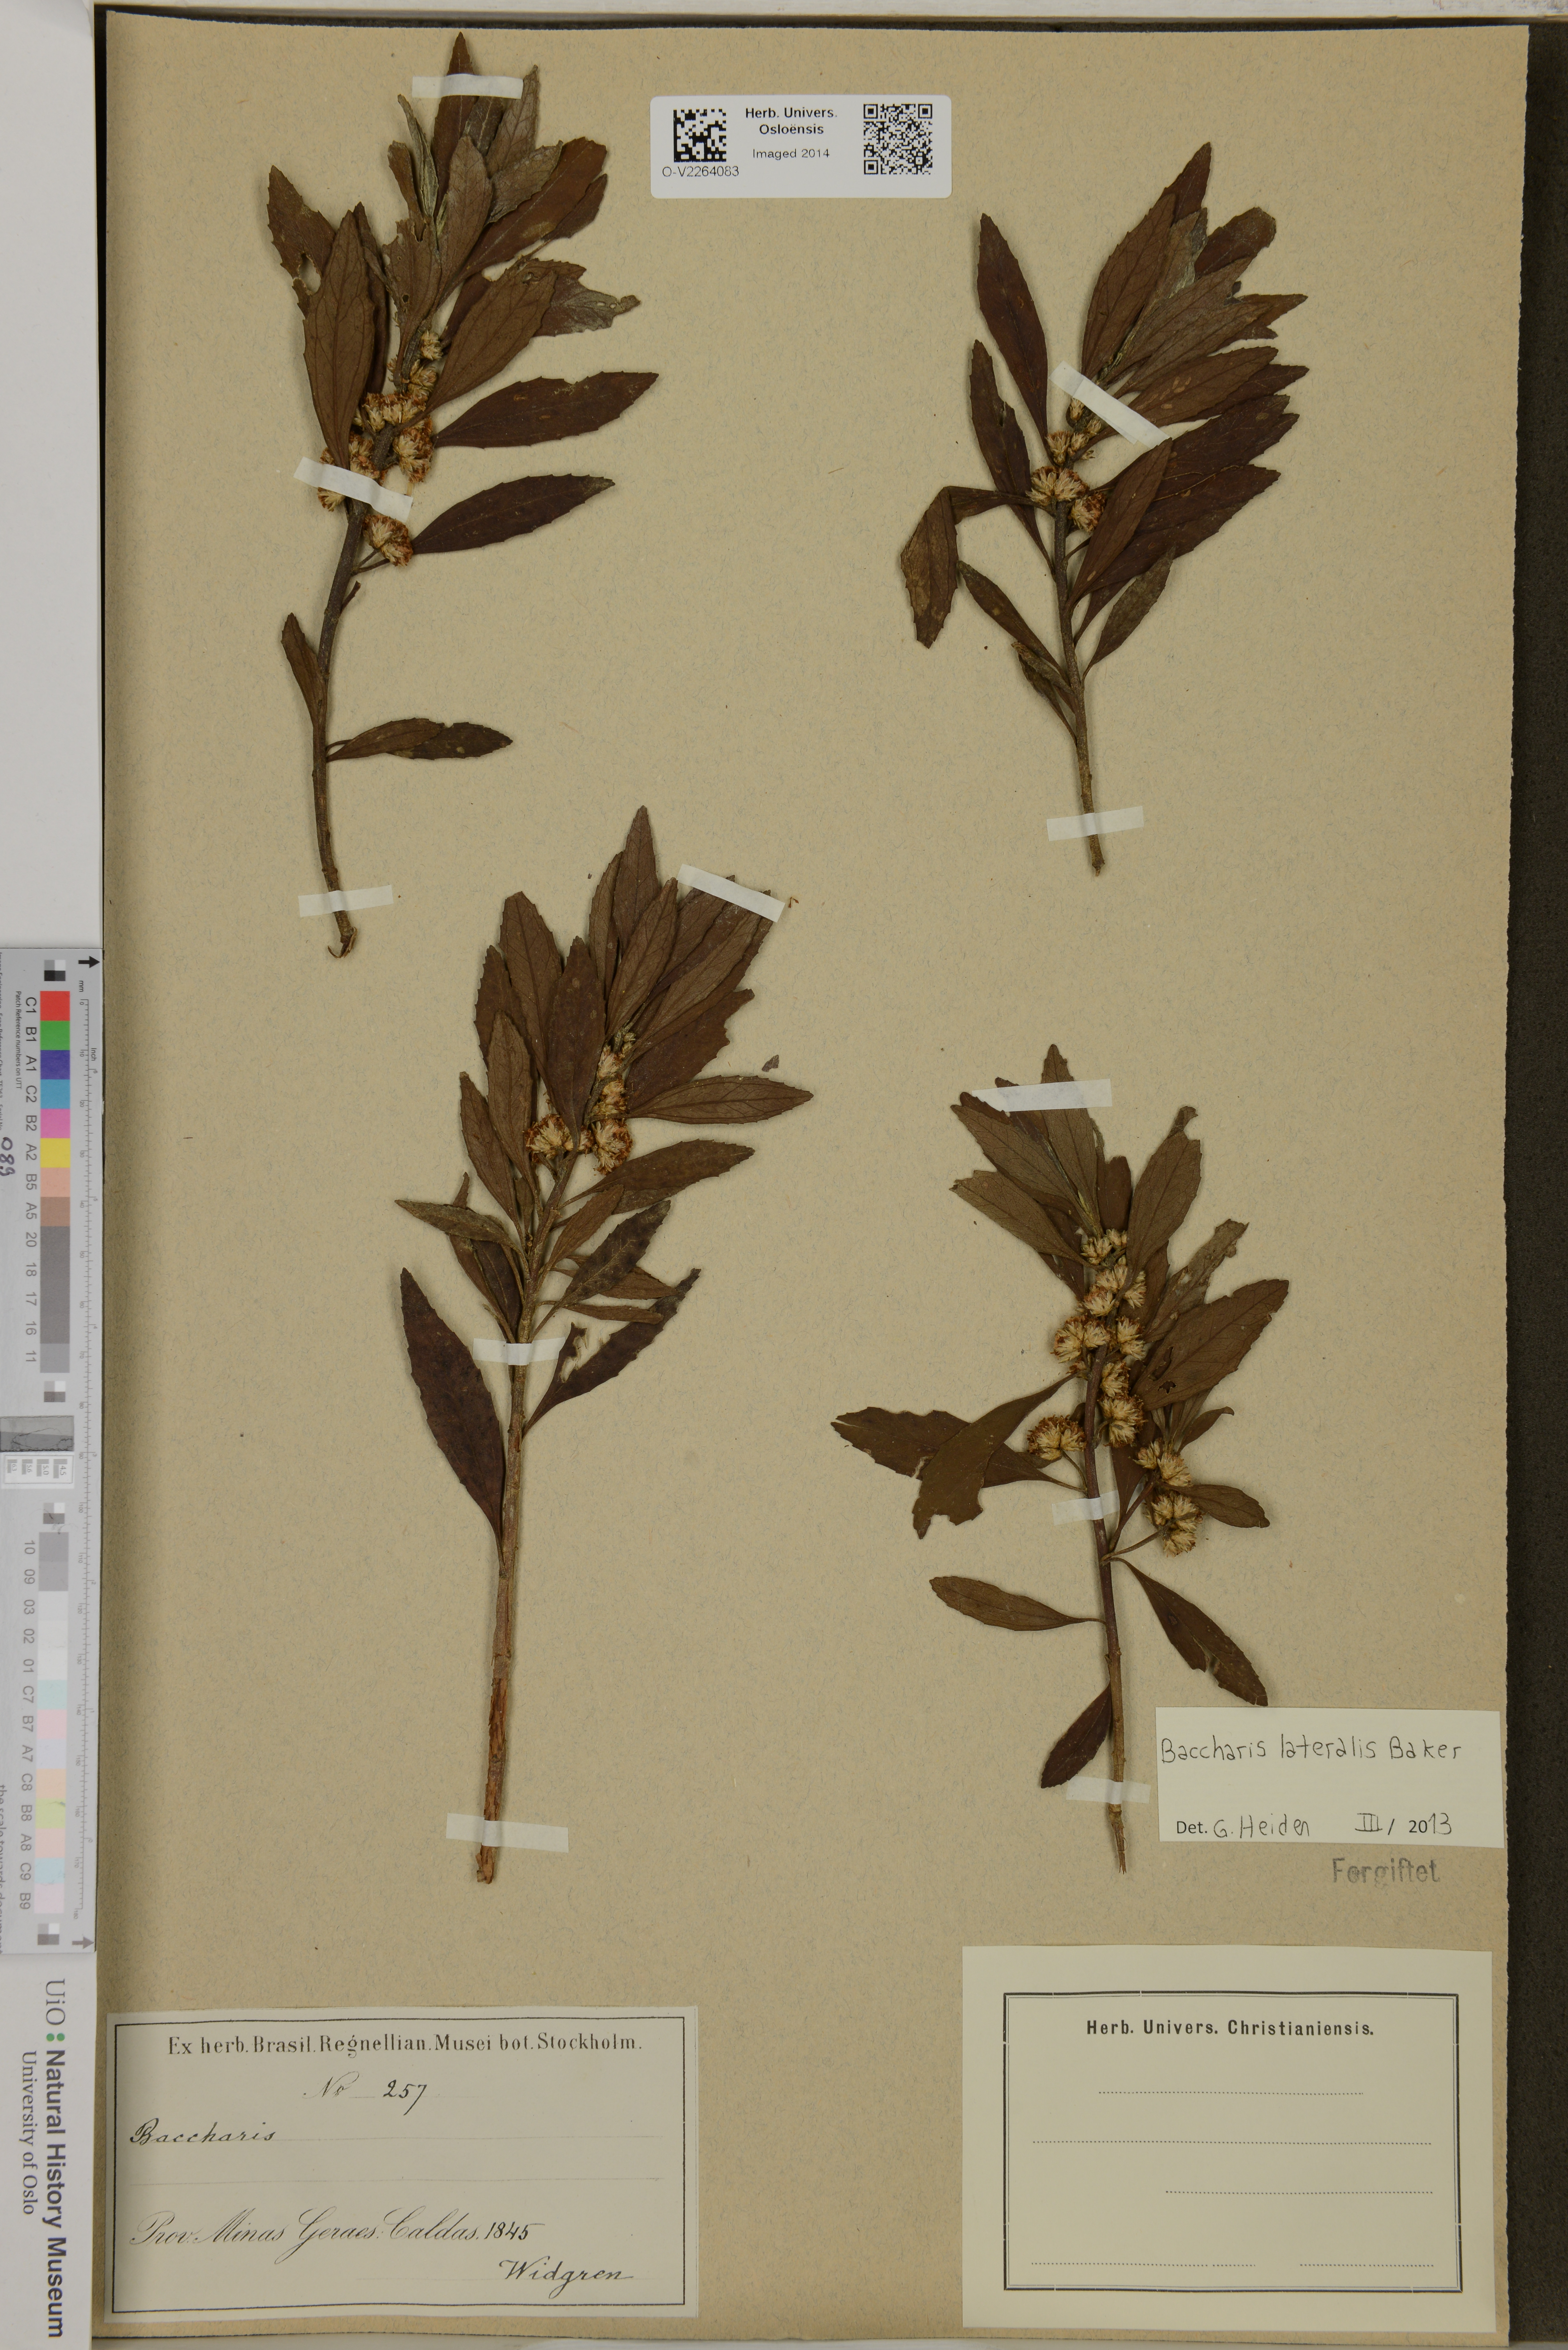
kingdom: Plantae
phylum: Tracheophyta
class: Magnoliopsida
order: Asterales
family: Asteraceae
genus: Baccharis
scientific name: Baccharis lateralis
